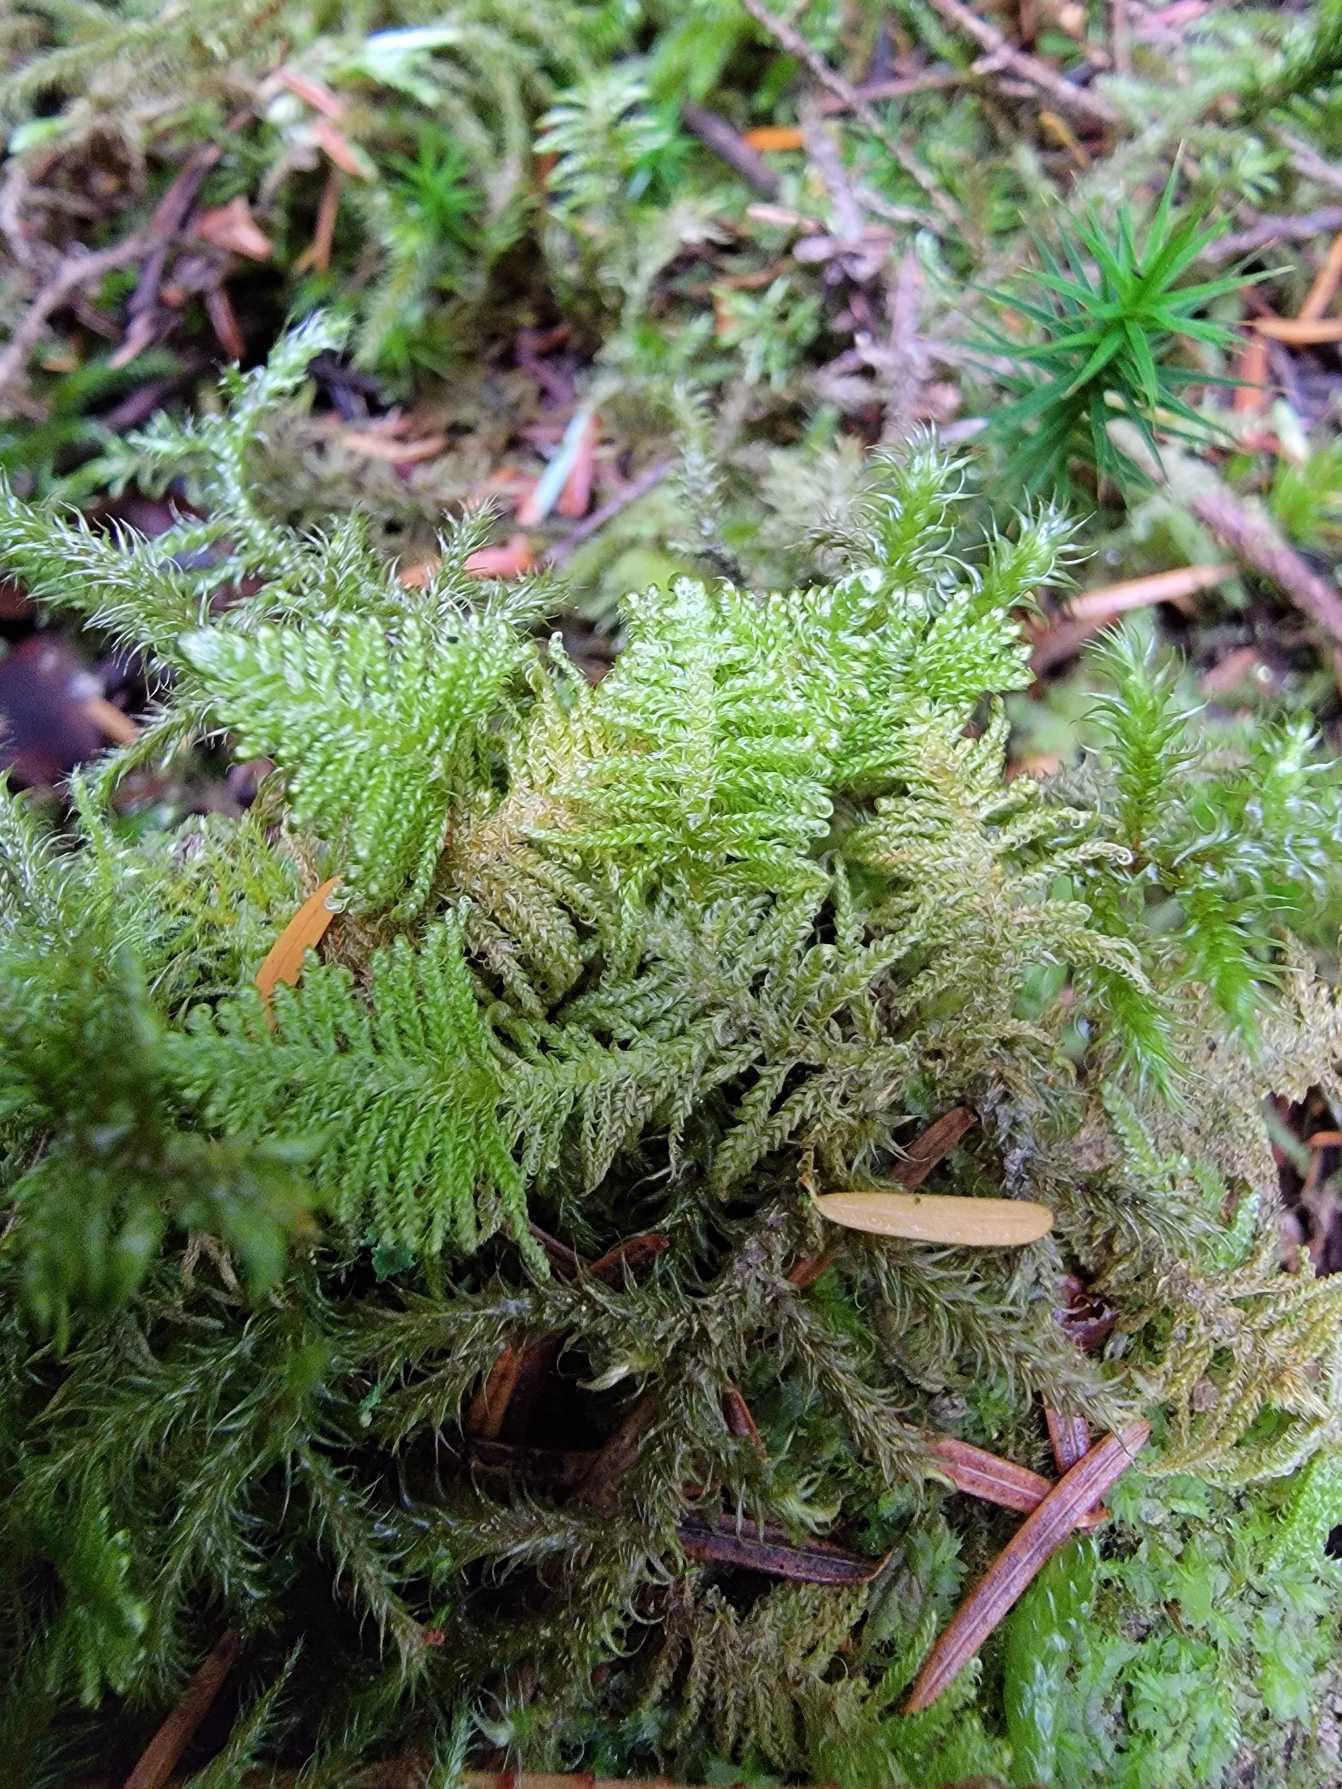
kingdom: Plantae
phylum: Bryophyta
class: Bryopsida
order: Hypnales
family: Pylaisiaceae
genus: Ptilium
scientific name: Ptilium crista-castrensis
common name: Fjer-kammos
